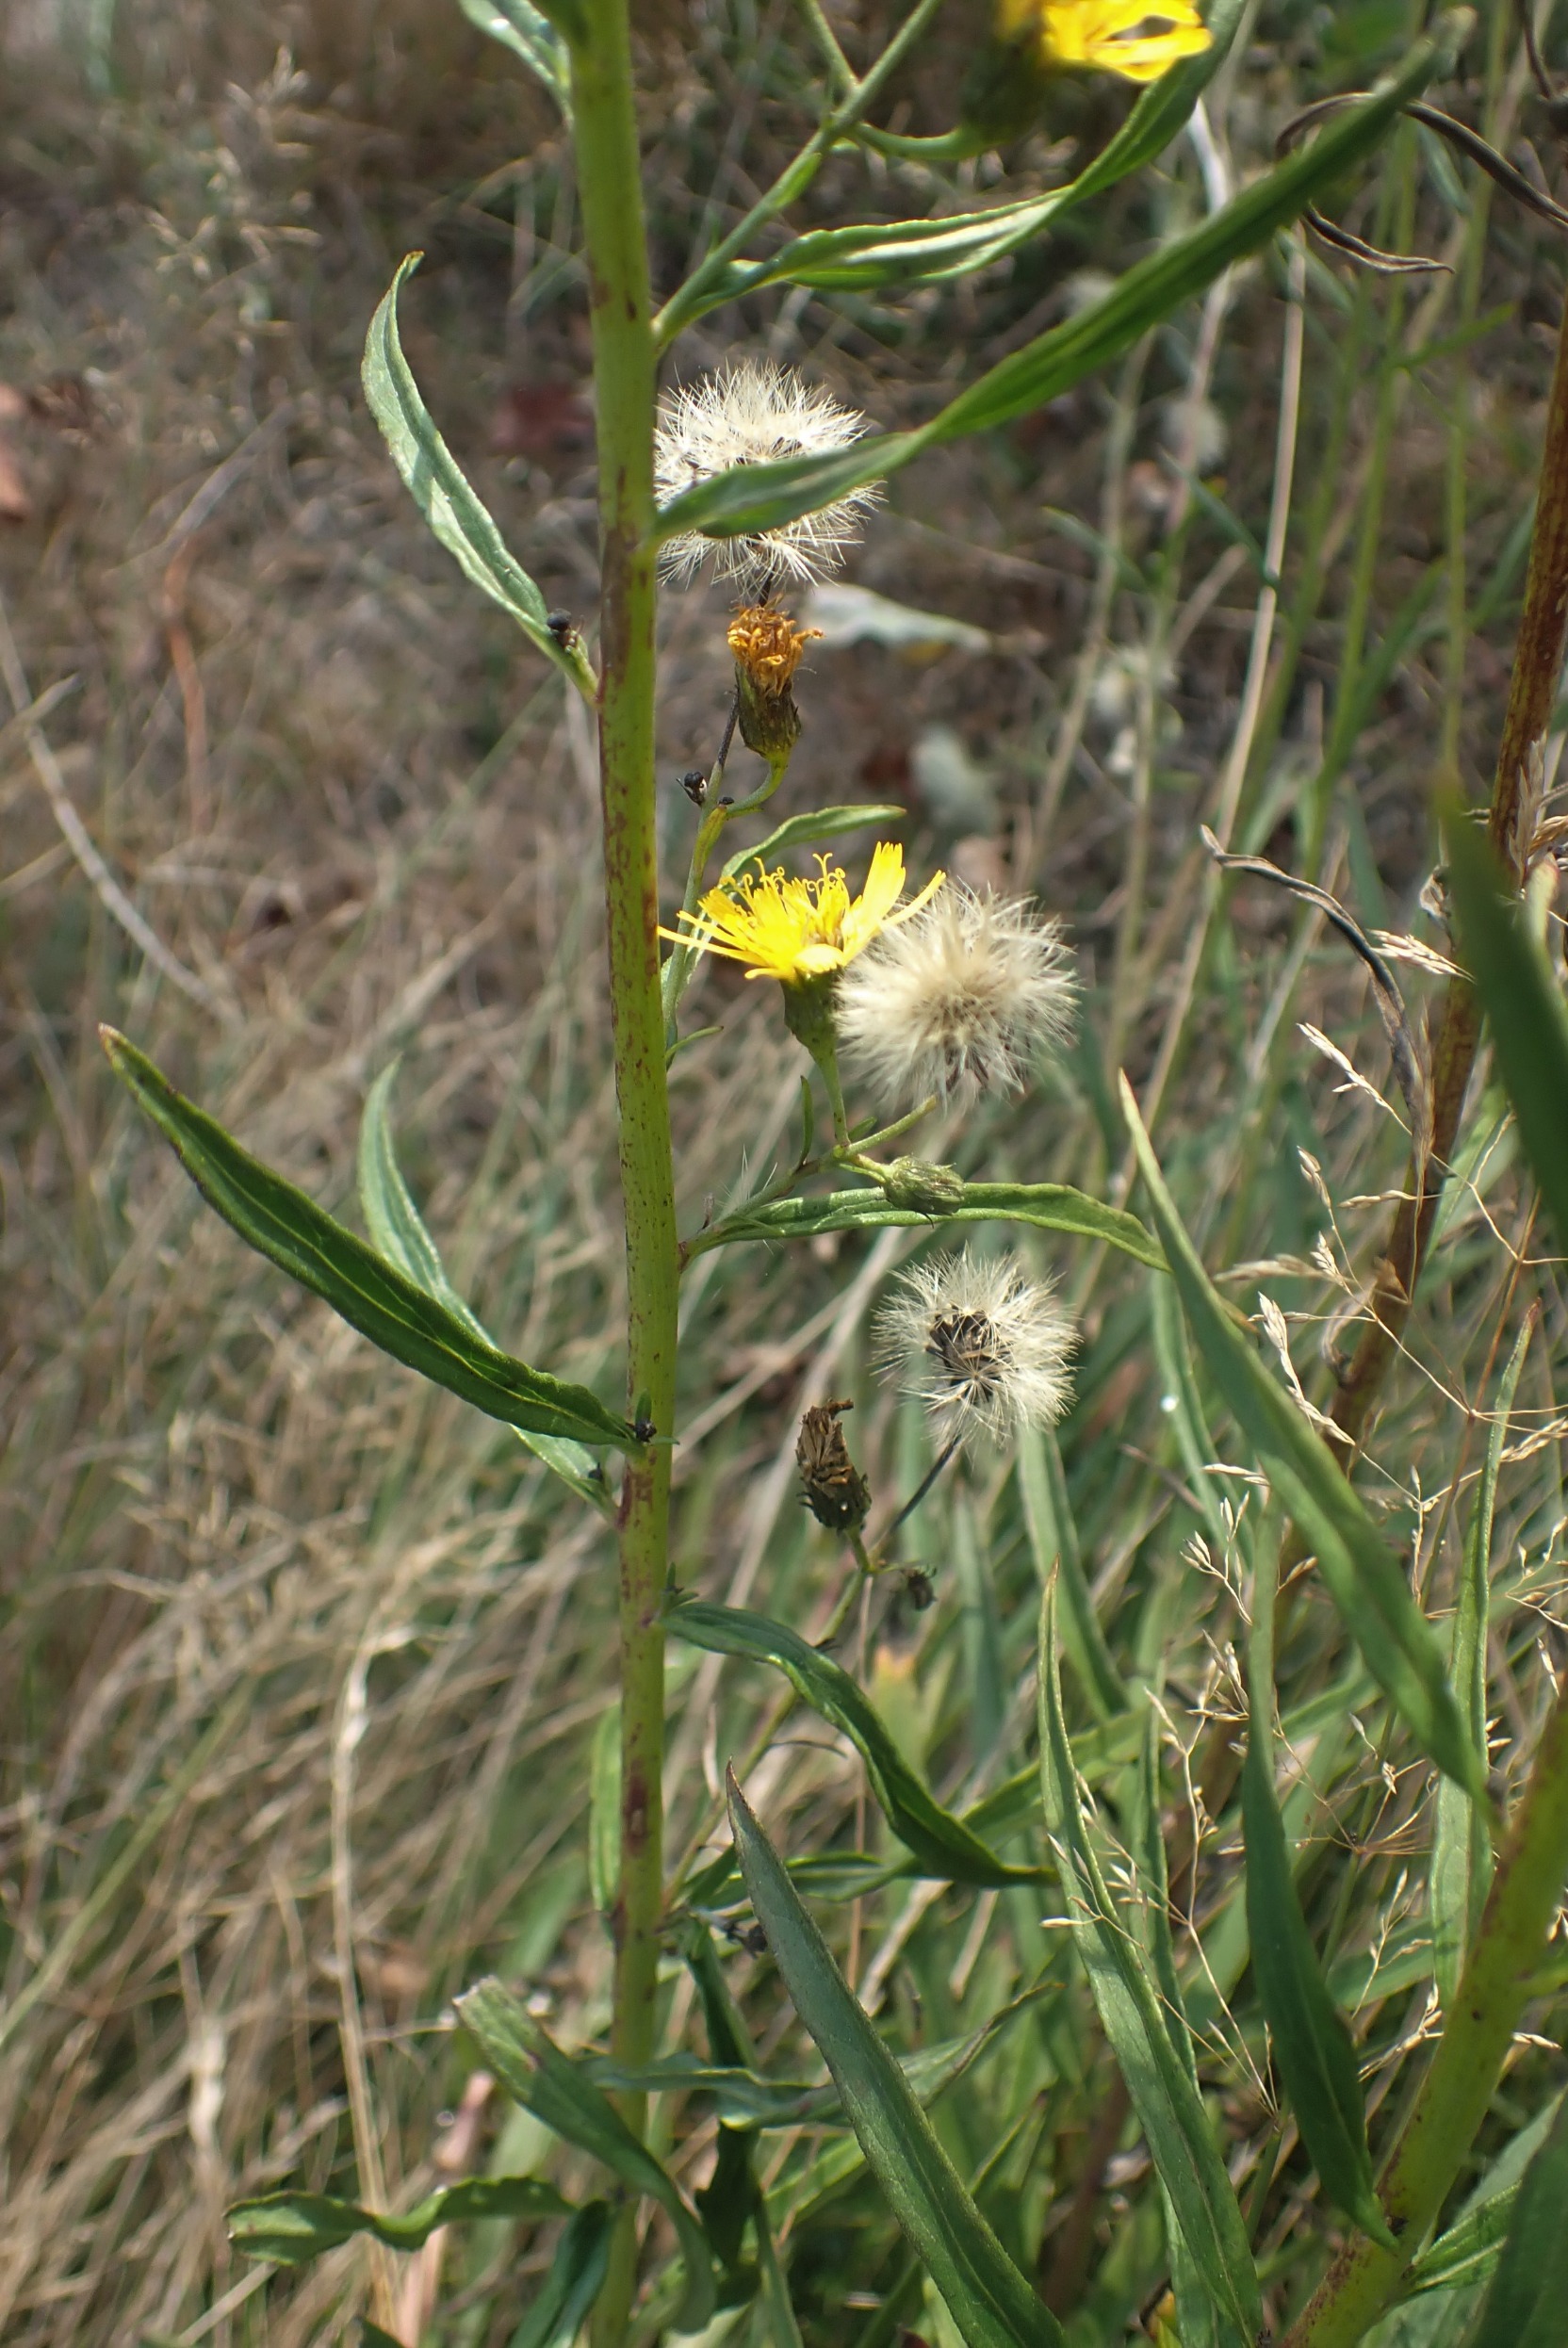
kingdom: Plantae
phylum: Tracheophyta
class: Magnoliopsida
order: Asterales
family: Asteraceae
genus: Hieracium
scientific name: Hieracium umbellatum
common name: Smalbladet høgeurt
